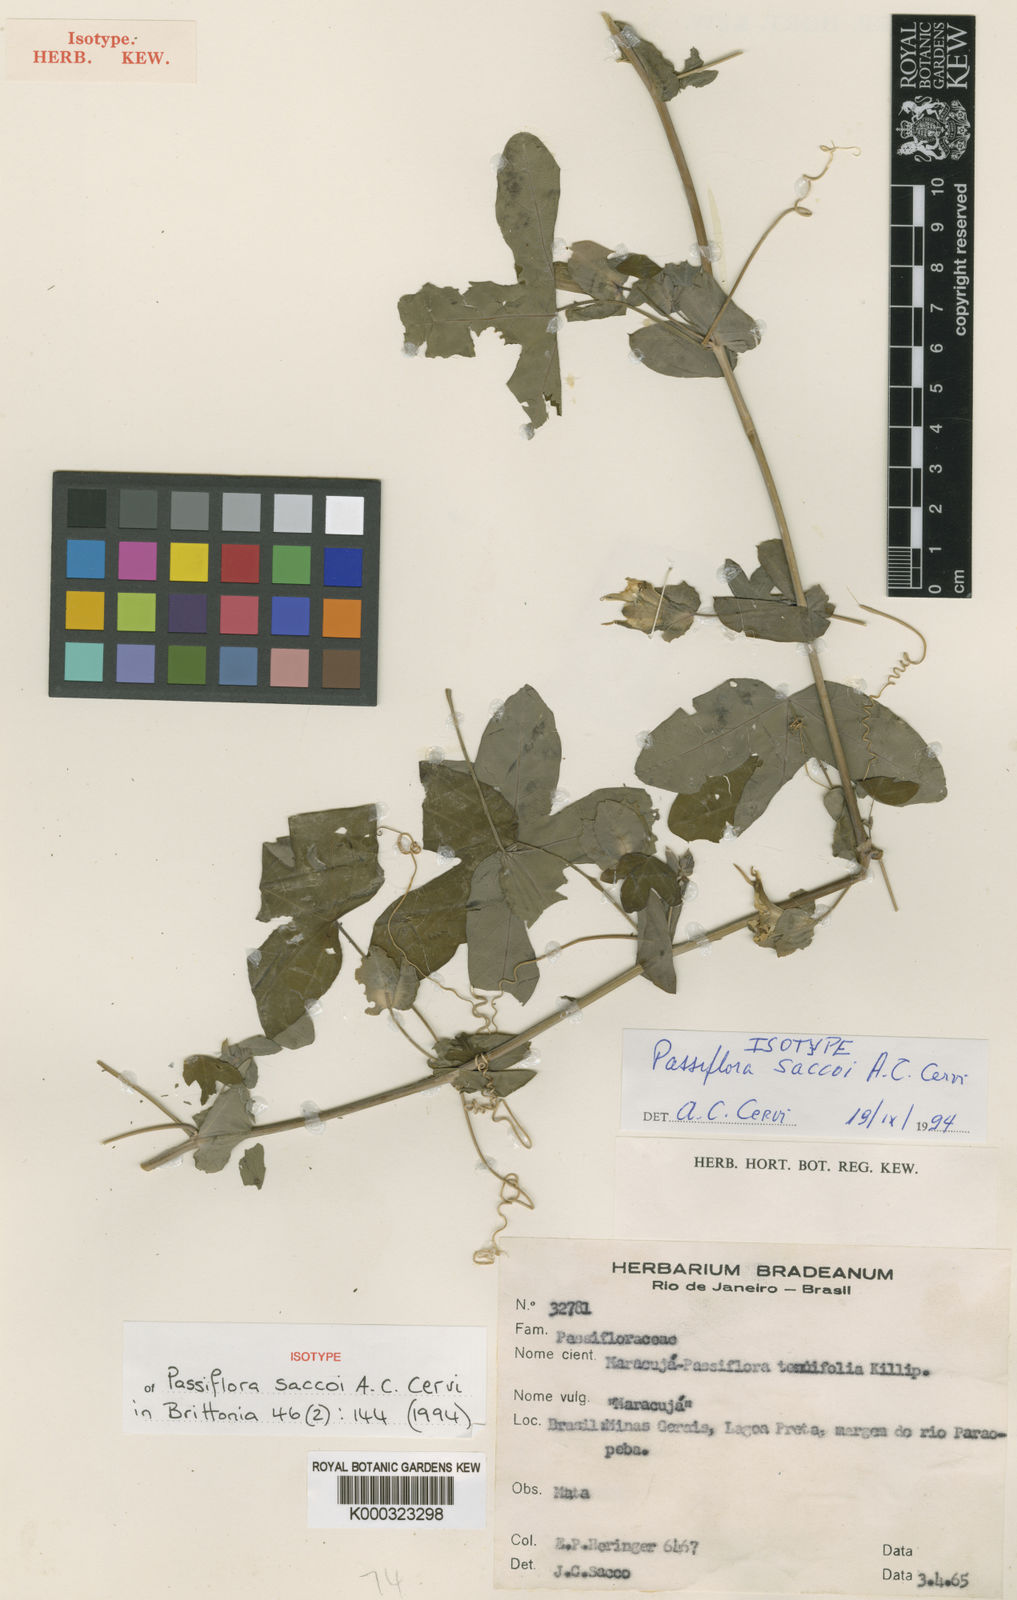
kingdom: Plantae
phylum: Tracheophyta
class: Magnoliopsida
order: Malpighiales
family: Passifloraceae
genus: Passiflora
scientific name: Passiflora saccoi
